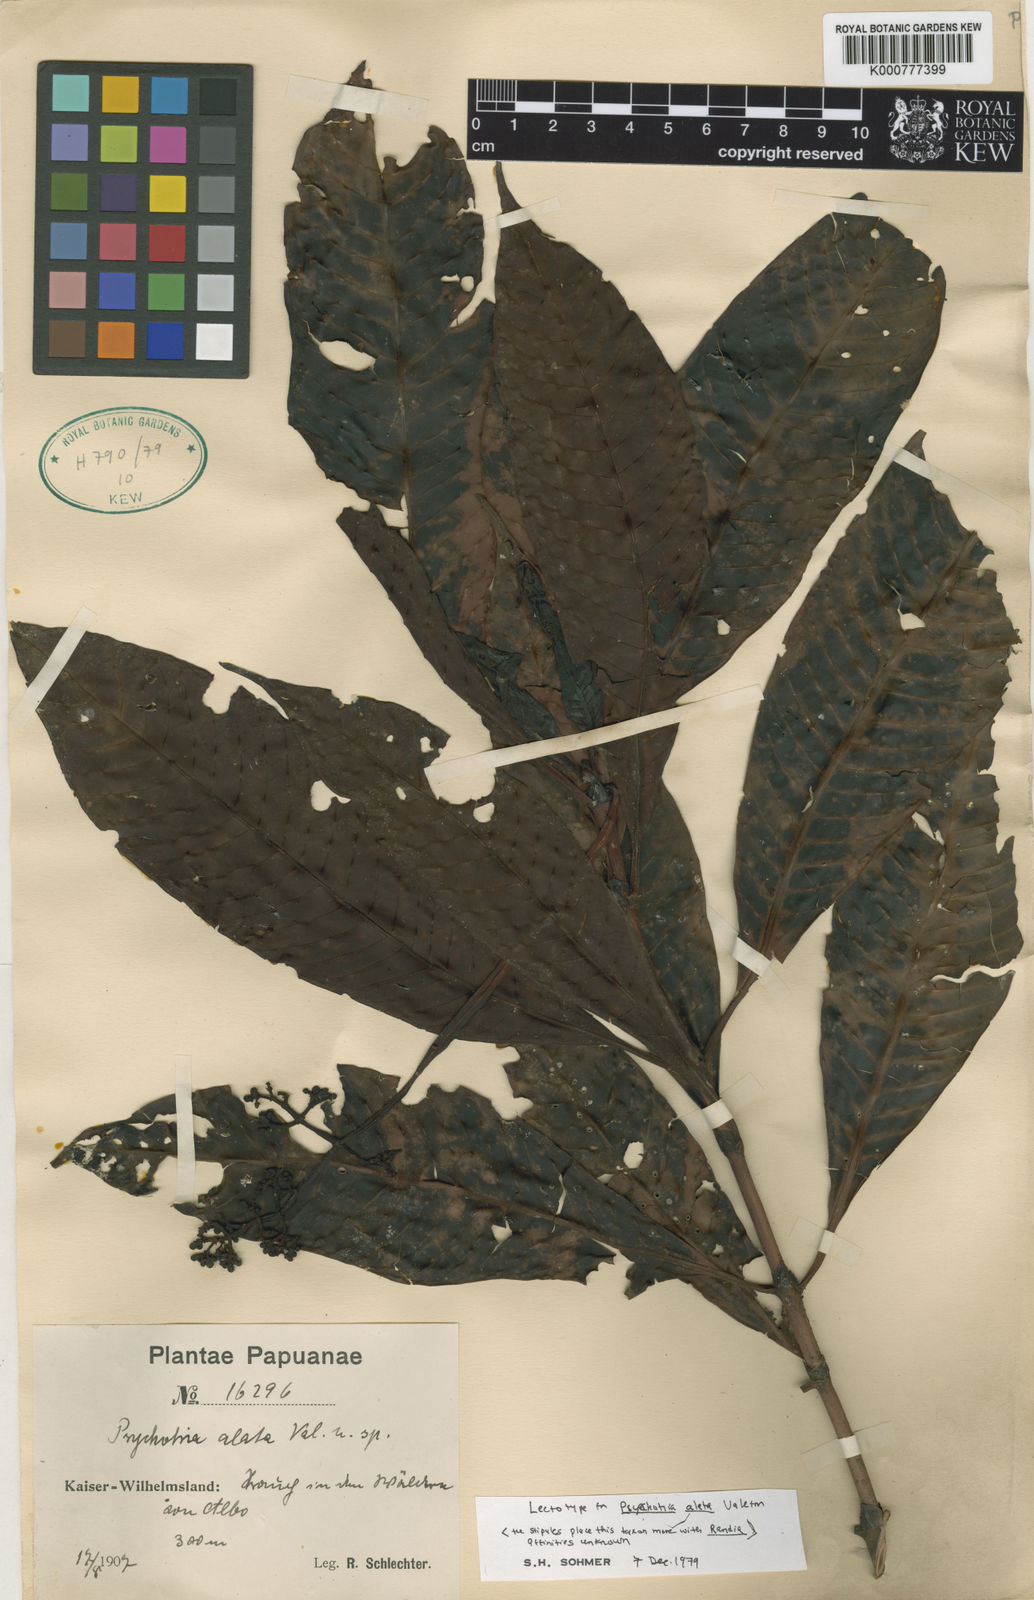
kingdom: Plantae
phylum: Tracheophyta
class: Magnoliopsida
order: Gentianales
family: Rubiaceae
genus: Psychotria
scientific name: Psychotria dipteropoda
